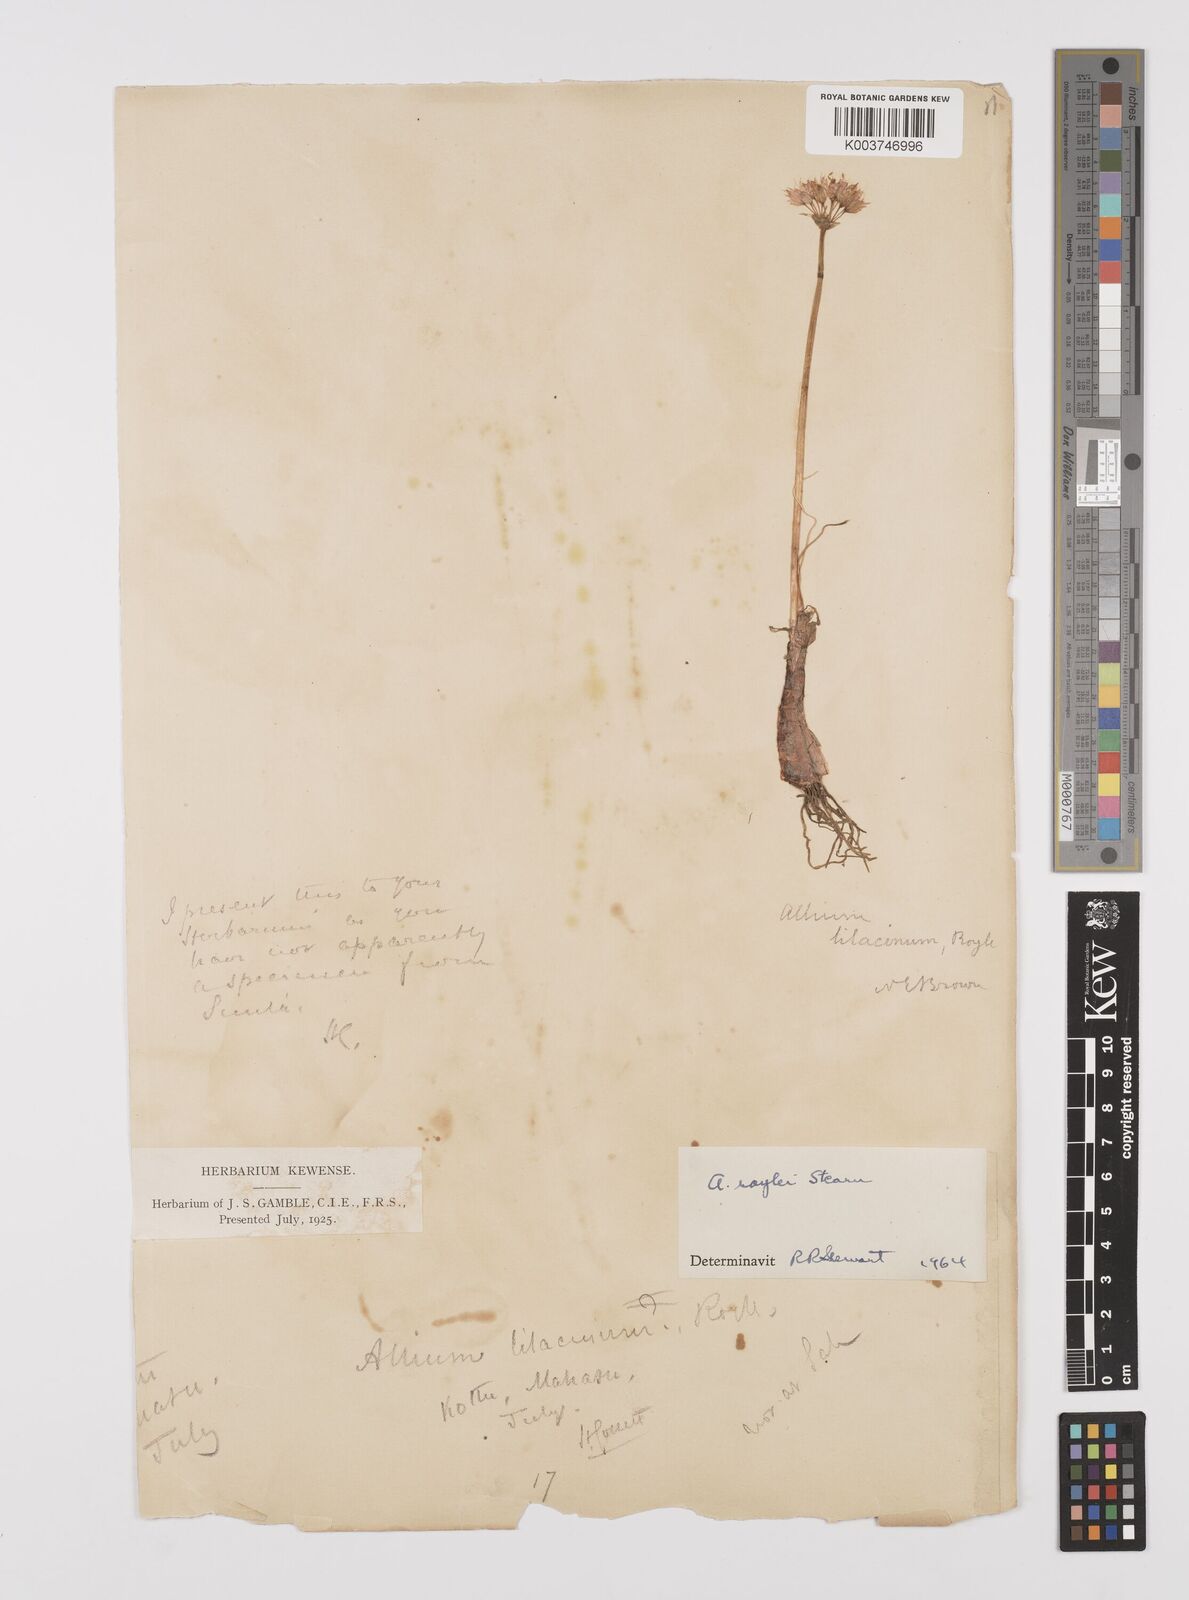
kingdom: Plantae
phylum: Tracheophyta
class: Liliopsida
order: Asparagales
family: Amaryllidaceae
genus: Allium
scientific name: Allium roylei
